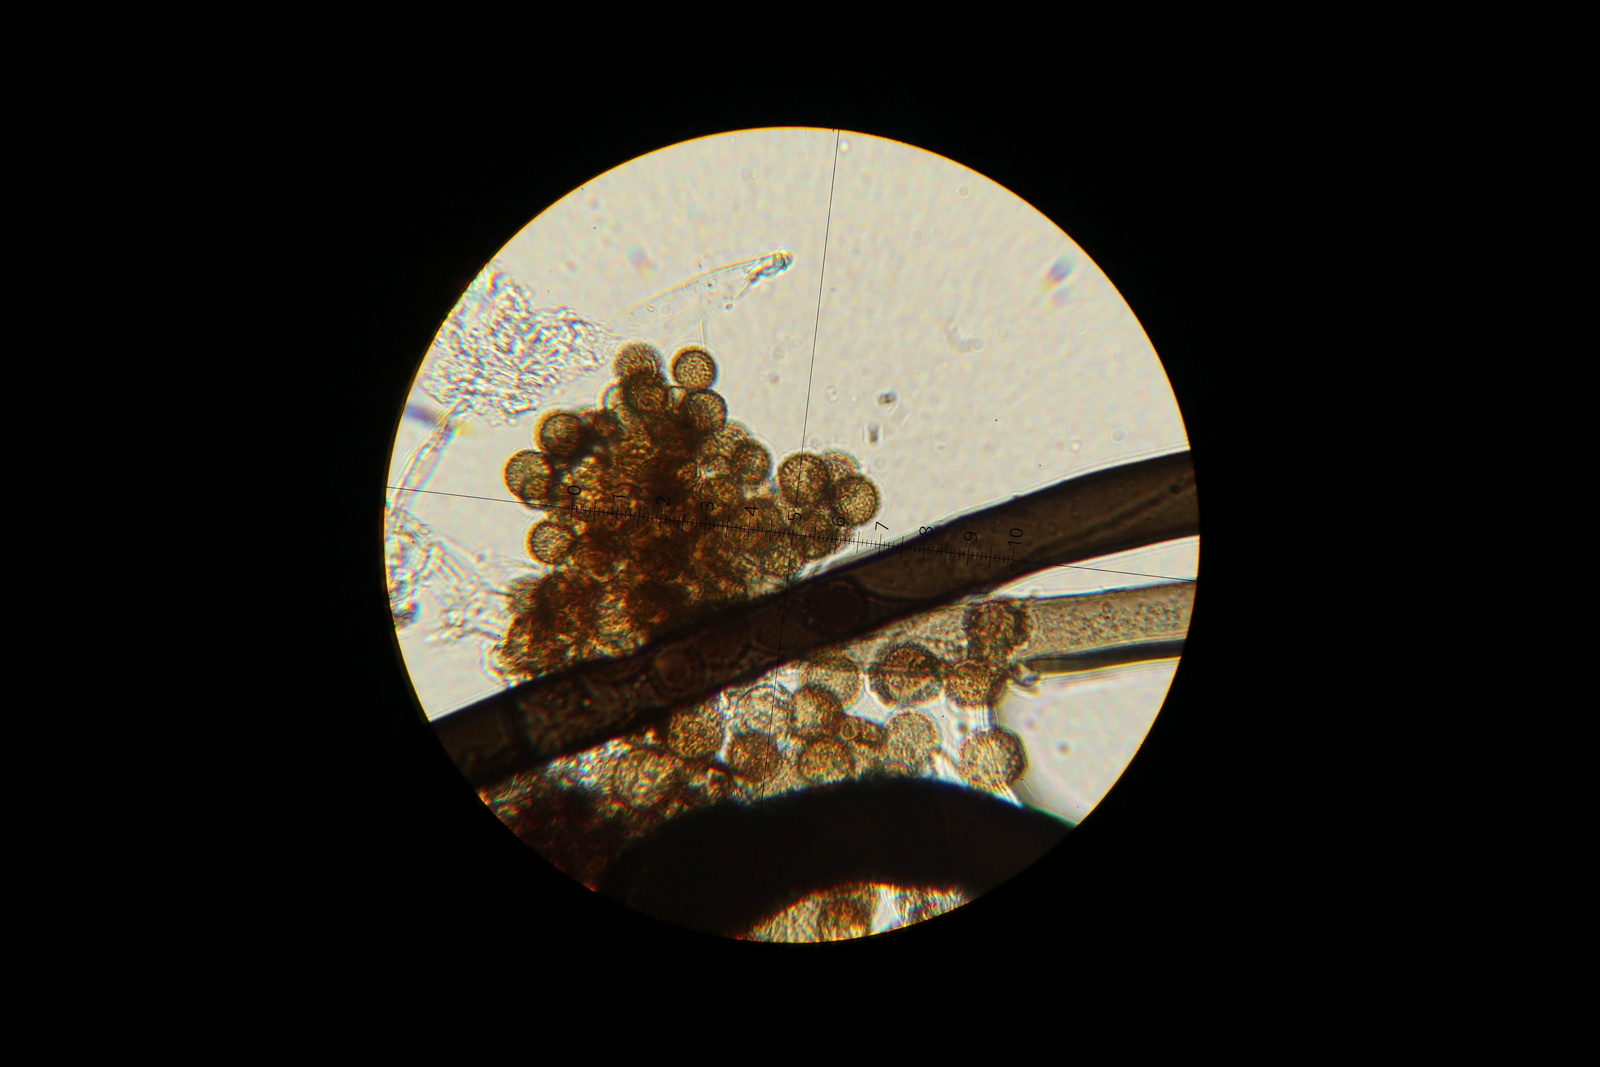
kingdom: Fungi
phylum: Ascomycota
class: Dothideomycetes
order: Pleosporales
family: Periconiaceae
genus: Periconia
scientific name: Periconia
